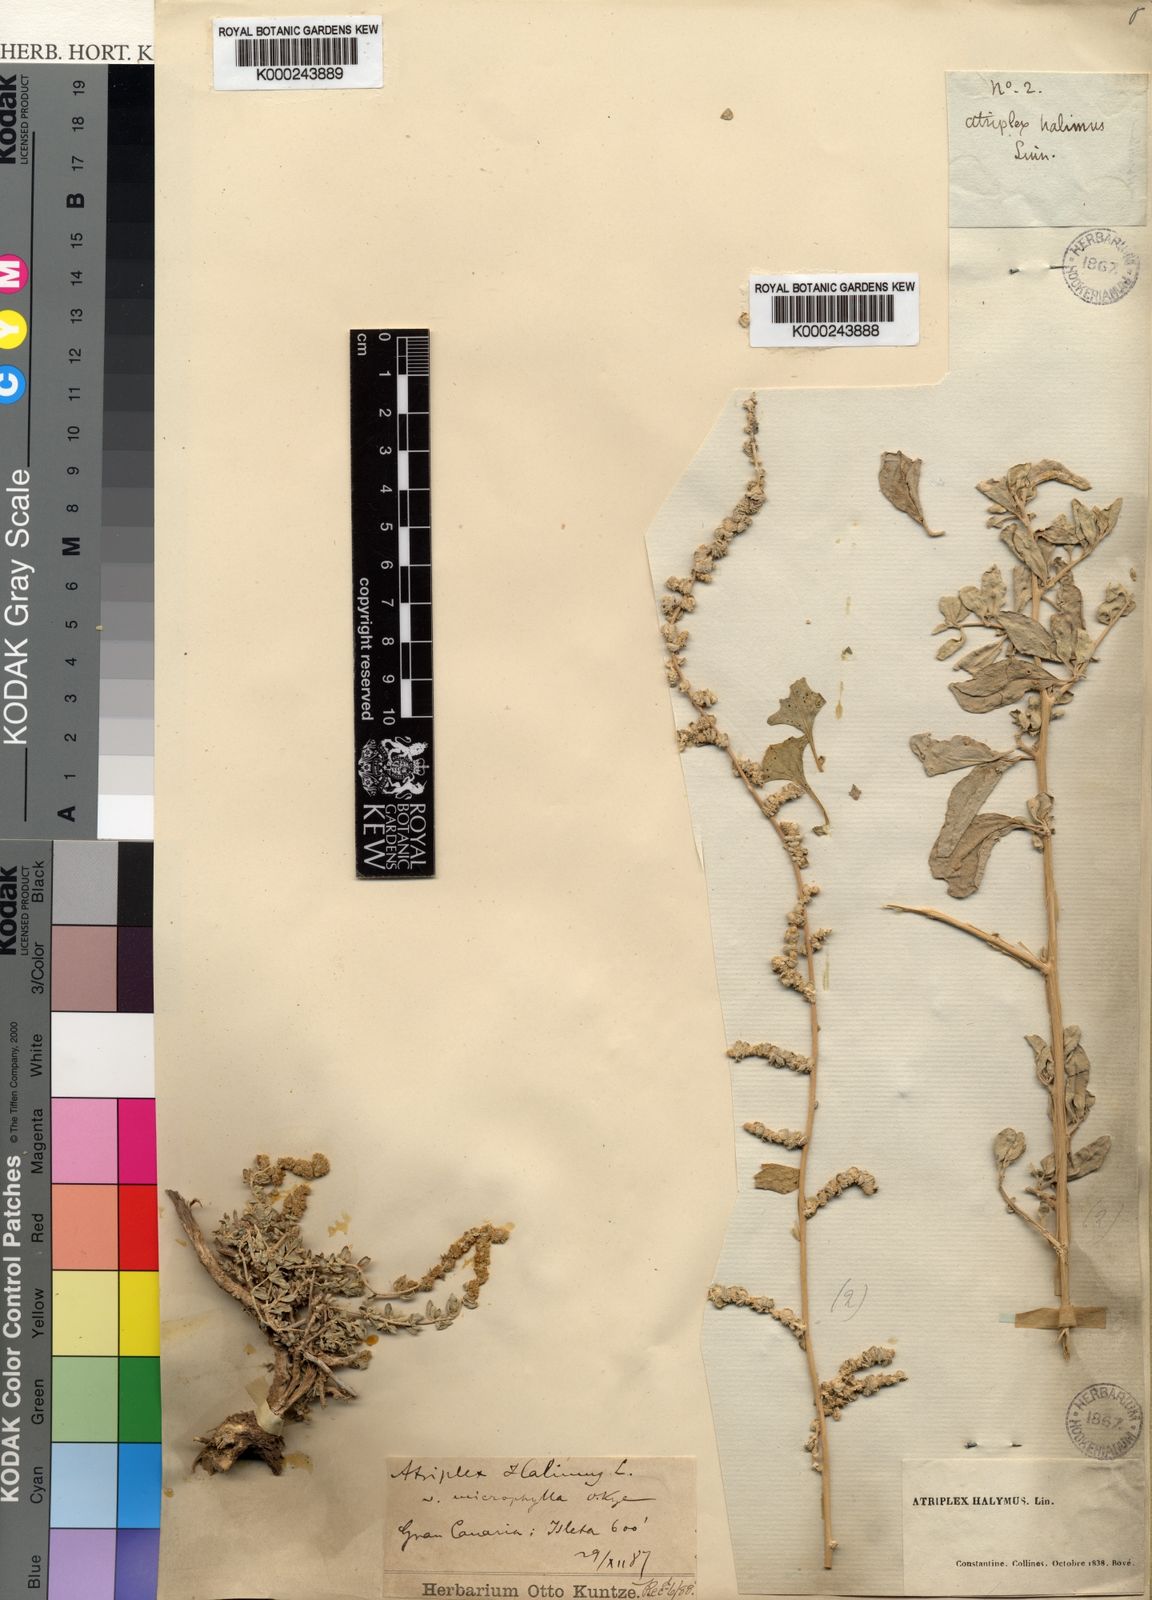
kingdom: Plantae
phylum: Tracheophyta
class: Magnoliopsida
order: Caryophyllales
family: Amaranthaceae
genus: Atriplex
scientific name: Atriplex halimus
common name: Shrubby orache
